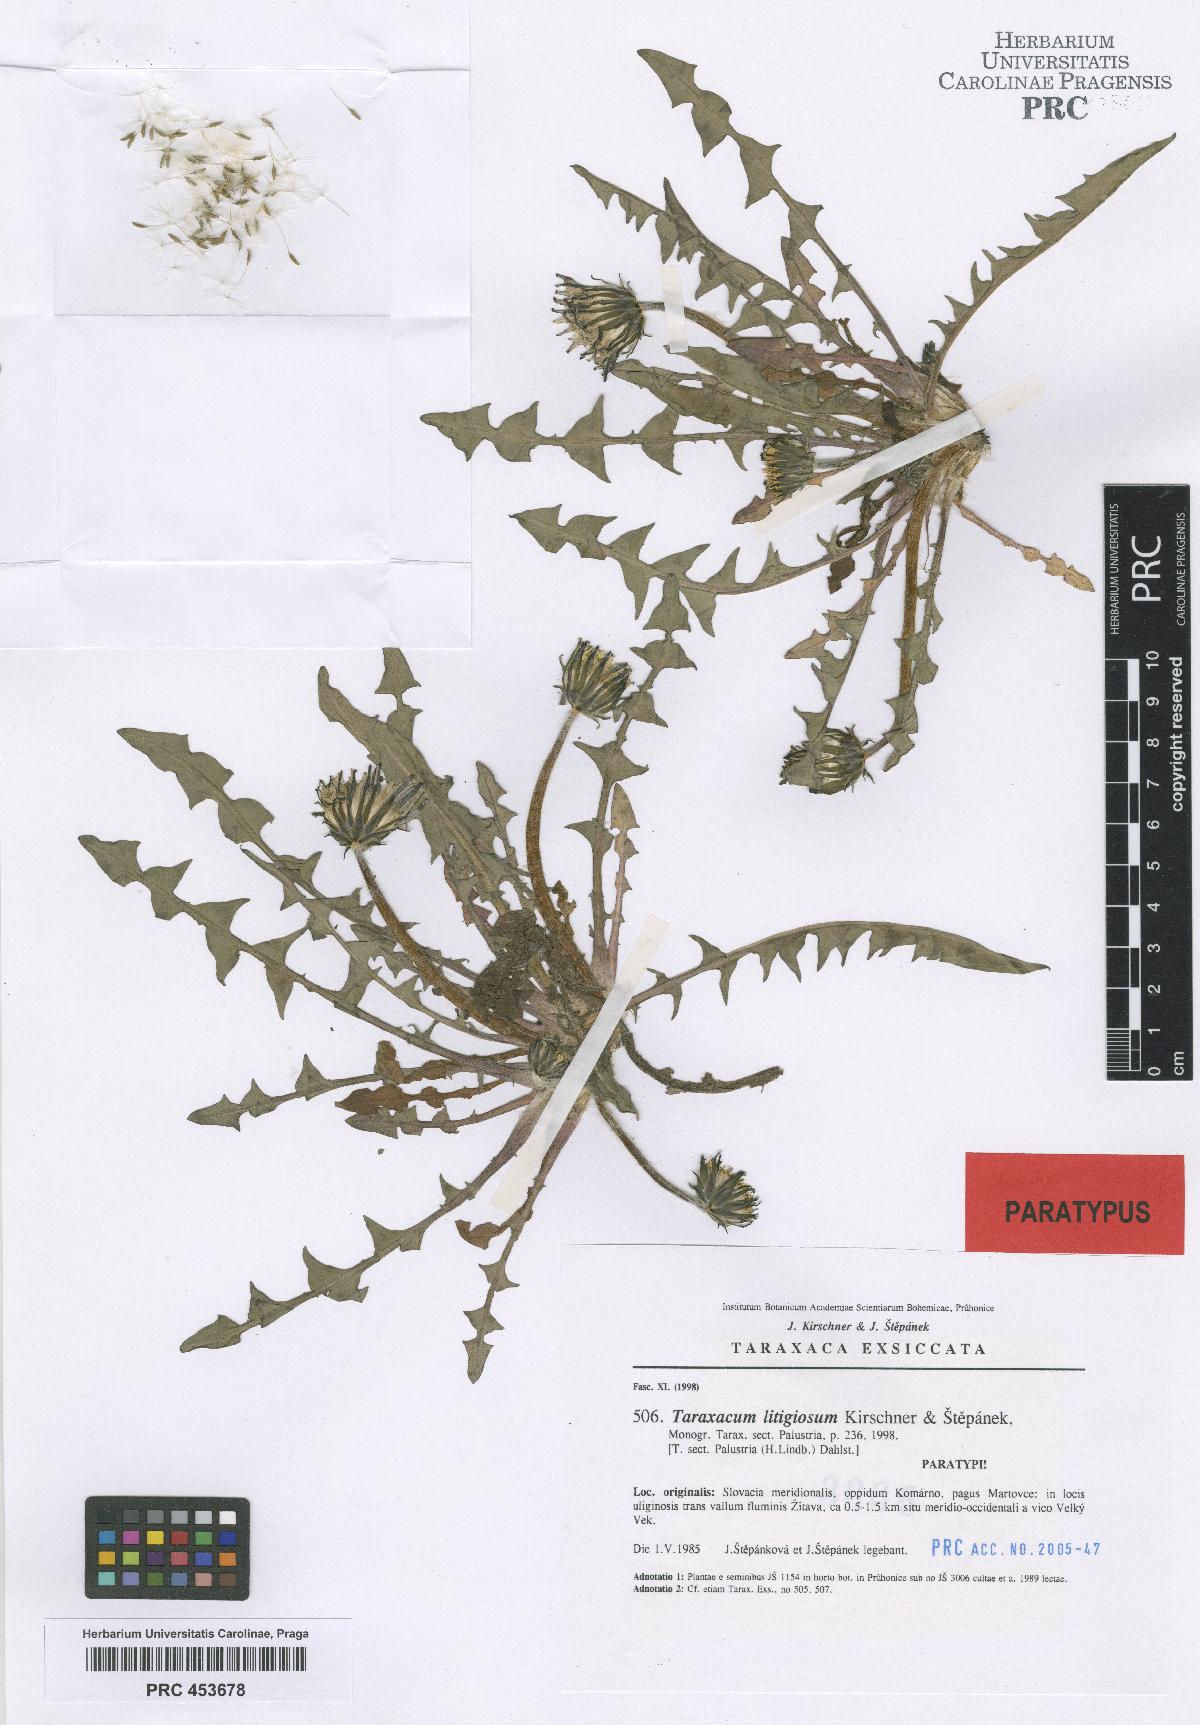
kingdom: Plantae
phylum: Tracheophyta
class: Magnoliopsida
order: Asterales
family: Asteraceae
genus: Taraxacum
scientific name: Taraxacum litigiosum
